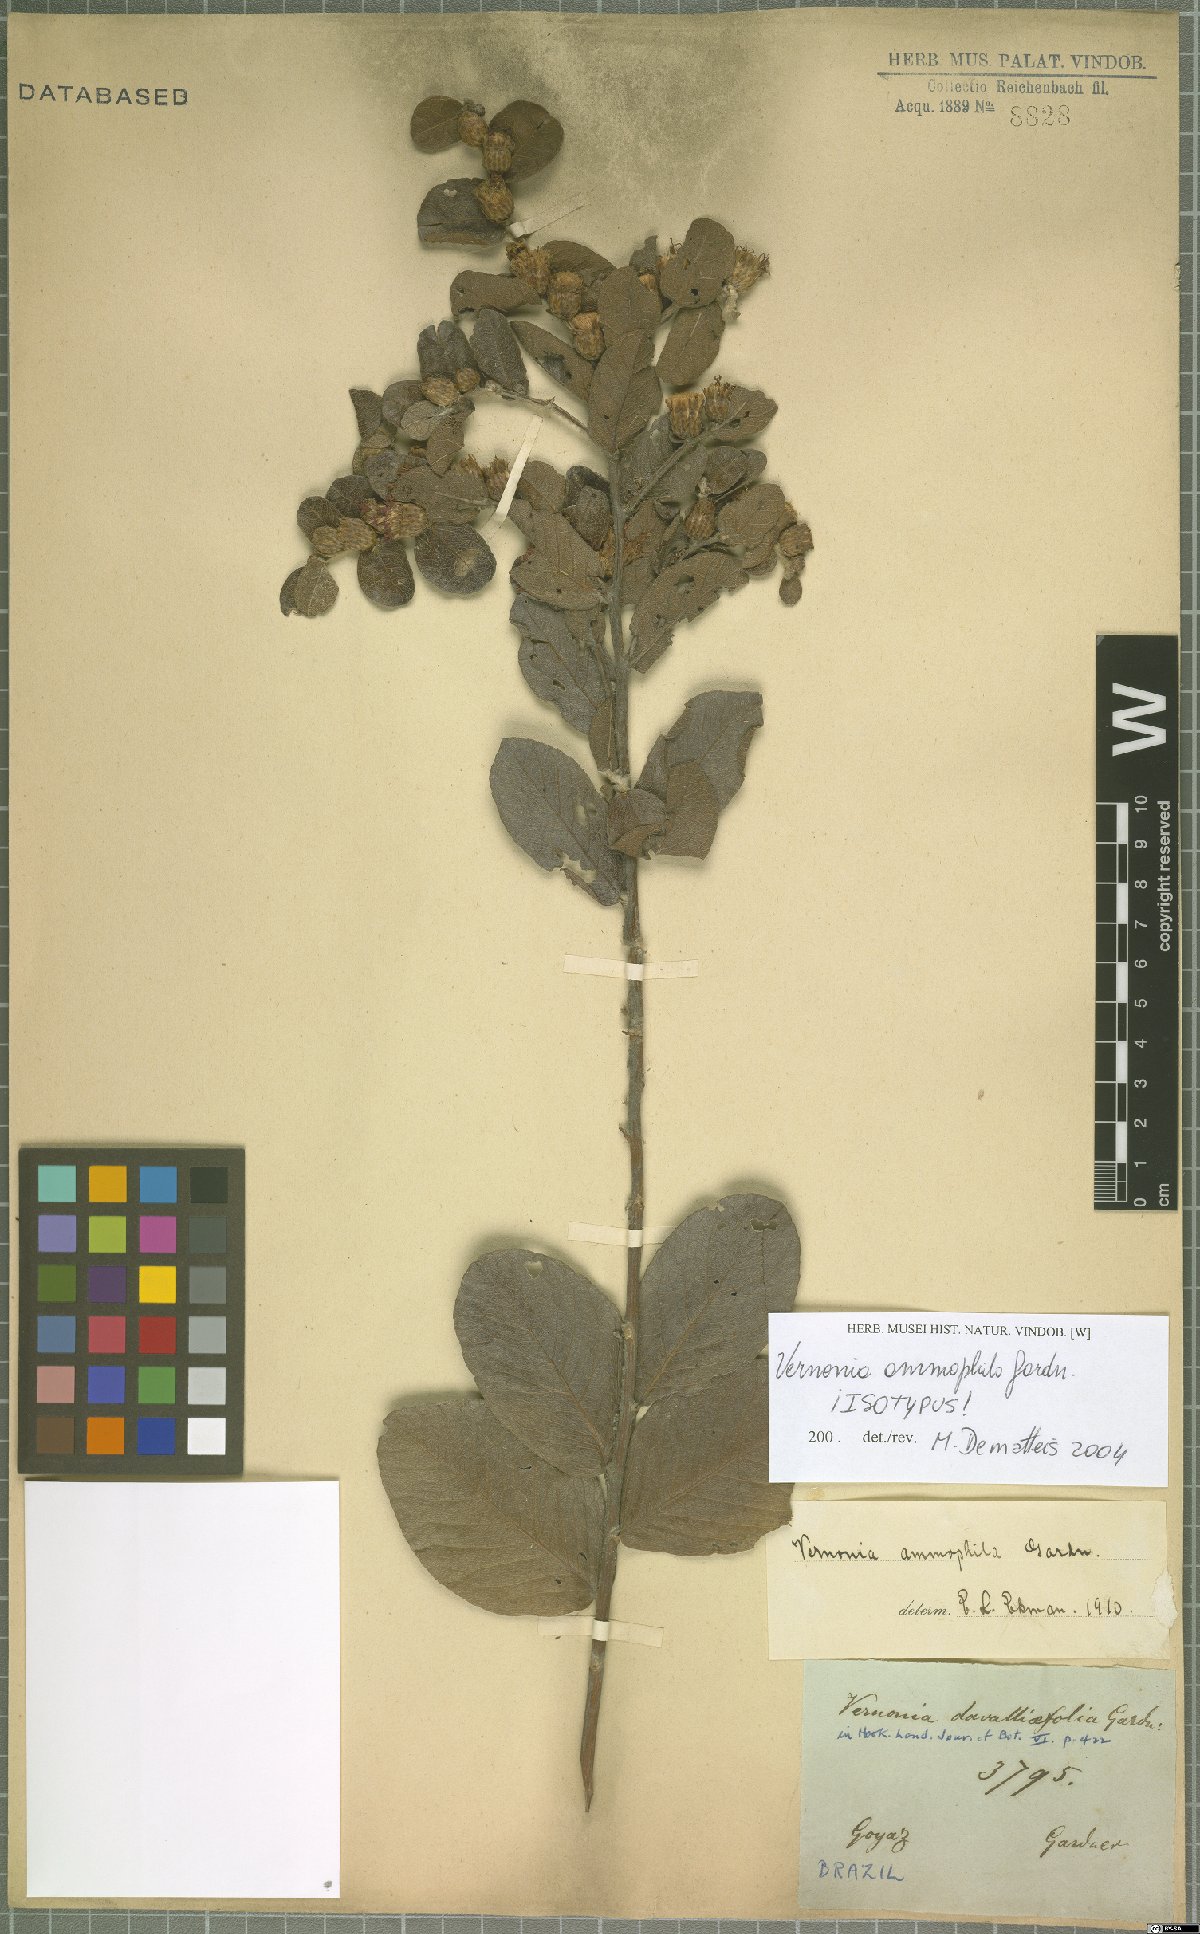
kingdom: Plantae
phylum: Tracheophyta
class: Magnoliopsida
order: Asterales
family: Asteraceae
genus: Lessingianthus
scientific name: Lessingianthus ammophilus
